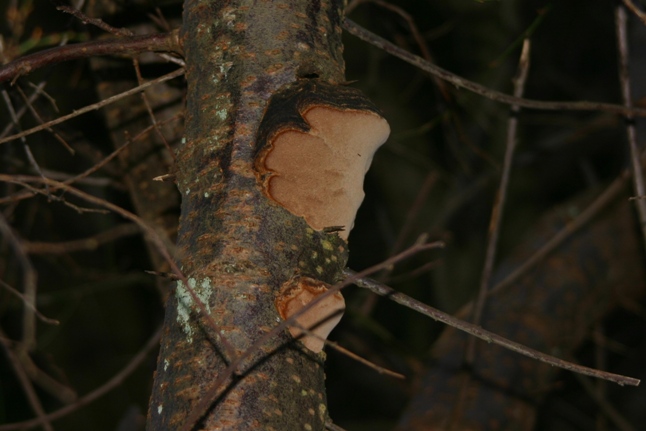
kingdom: Fungi
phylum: Basidiomycota
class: Agaricomycetes
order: Hymenochaetales
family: Hymenochaetaceae
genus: Phellinus
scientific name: Phellinus pomaceus
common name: blomme-ildporesvamp
